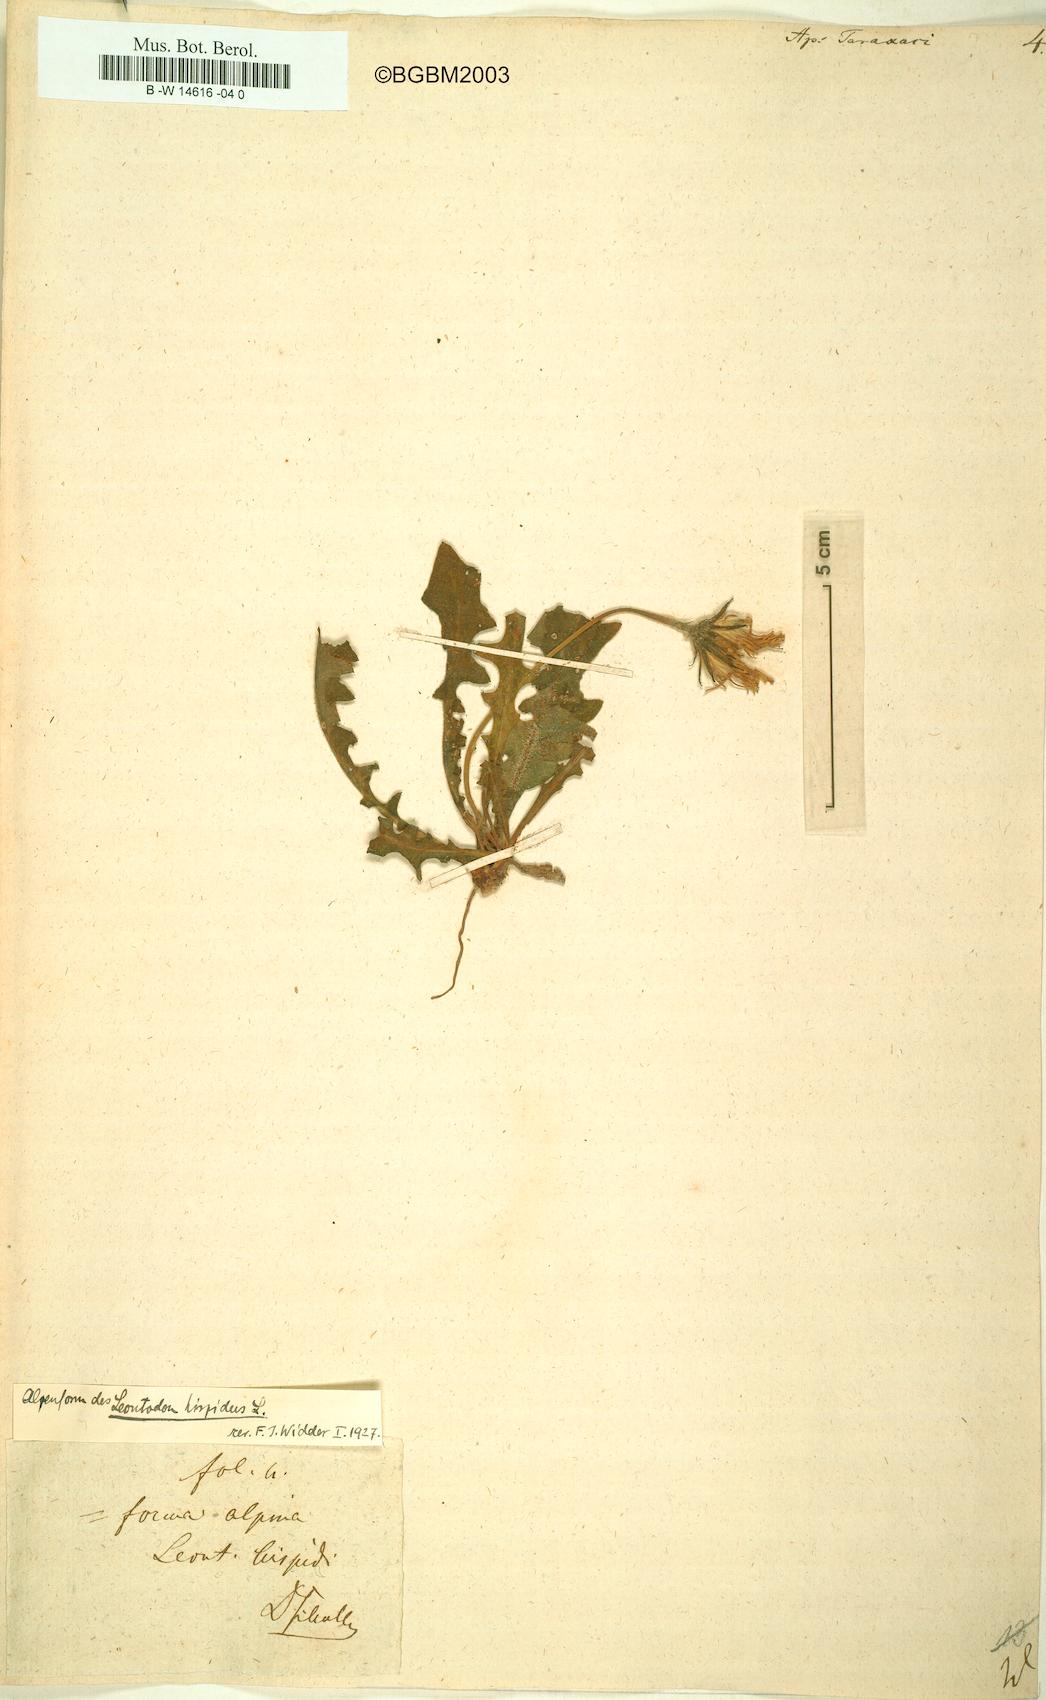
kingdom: Plantae
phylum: Tracheophyta
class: Magnoliopsida
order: Asterales
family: Asteraceae
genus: Scorzoneroides
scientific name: Scorzoneroides
